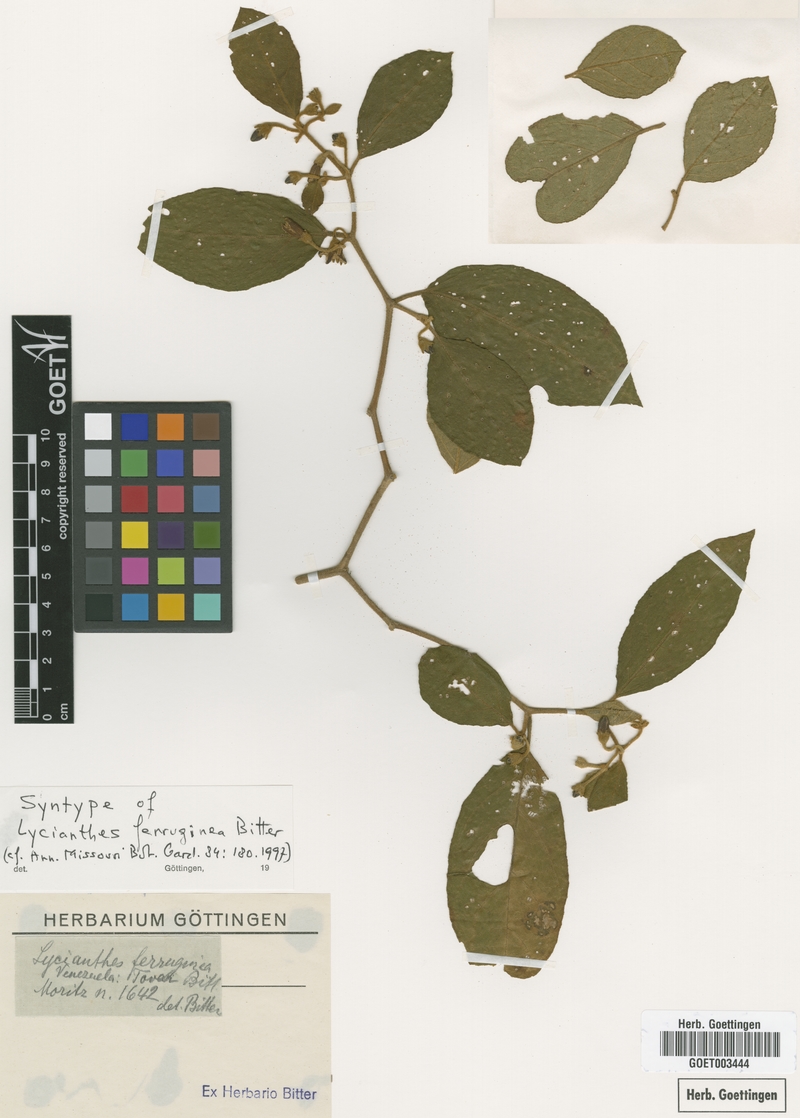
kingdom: Plantae
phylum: Tracheophyta
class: Magnoliopsida
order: Solanales
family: Solanaceae
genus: Lycianthes
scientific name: Lycianthes ferruginea
